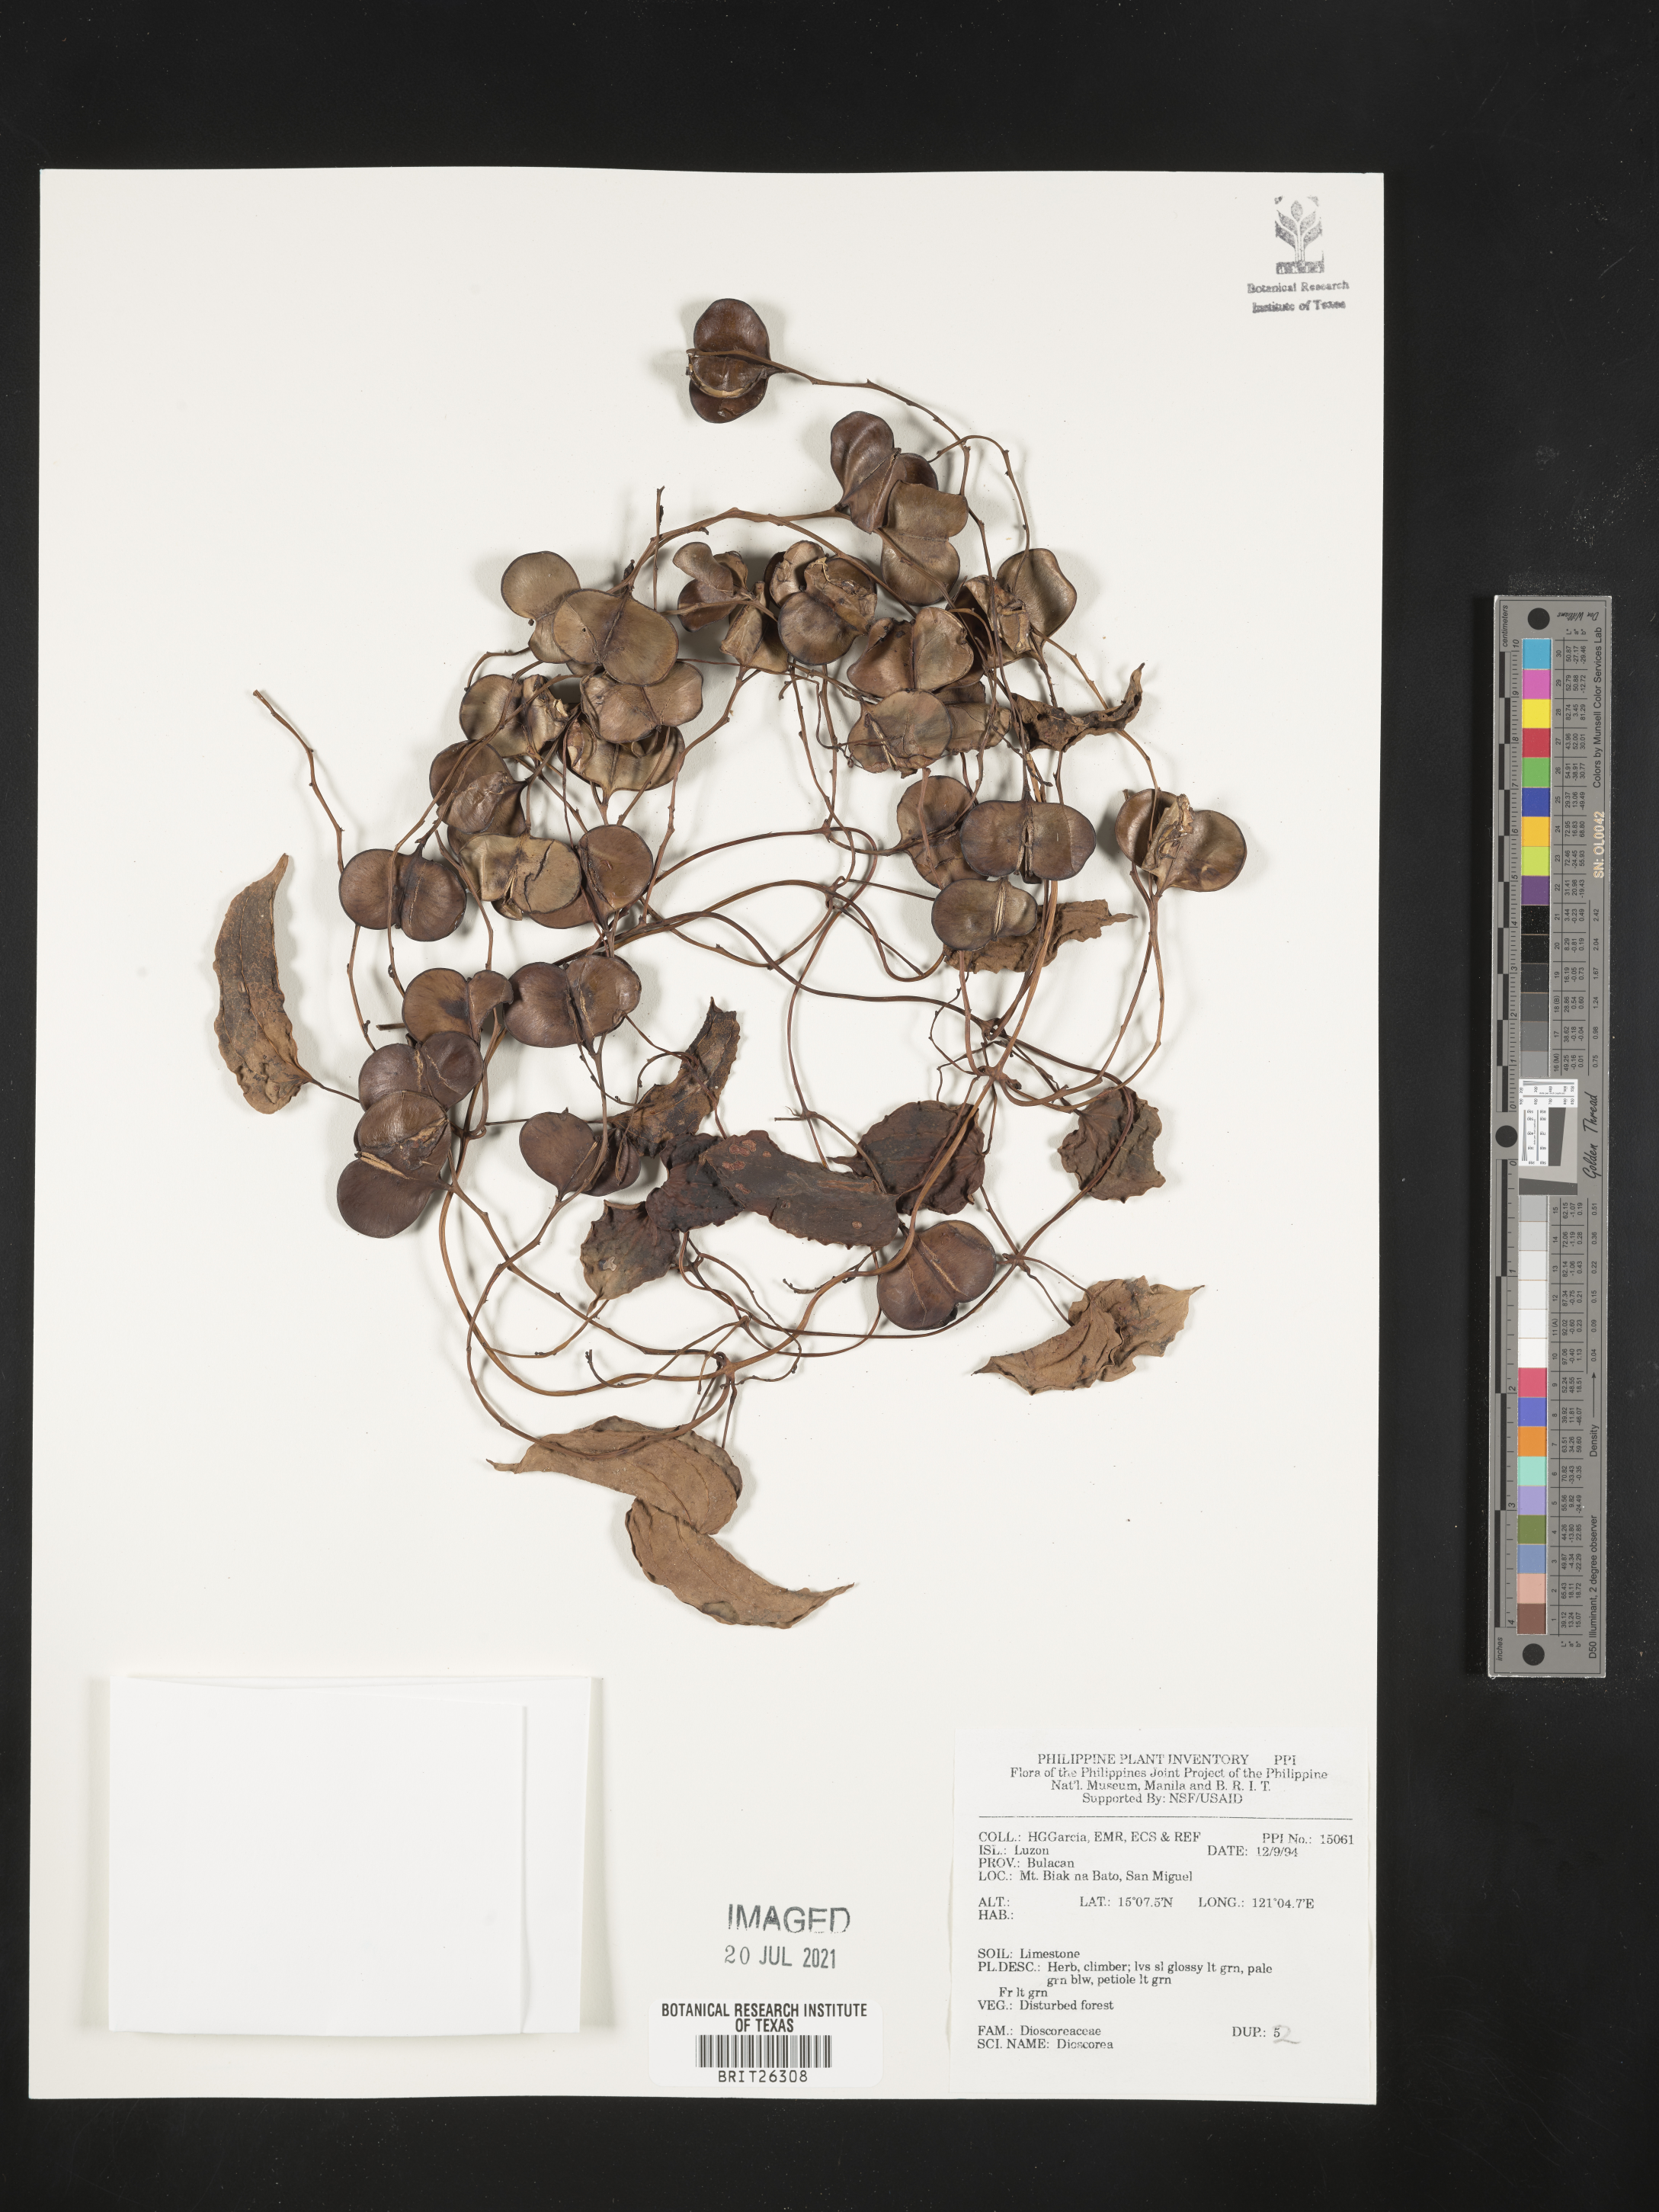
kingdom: Plantae
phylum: Tracheophyta
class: Liliopsida
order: Dioscoreales
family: Dioscoreaceae
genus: Dioscorea
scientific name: Dioscorea
